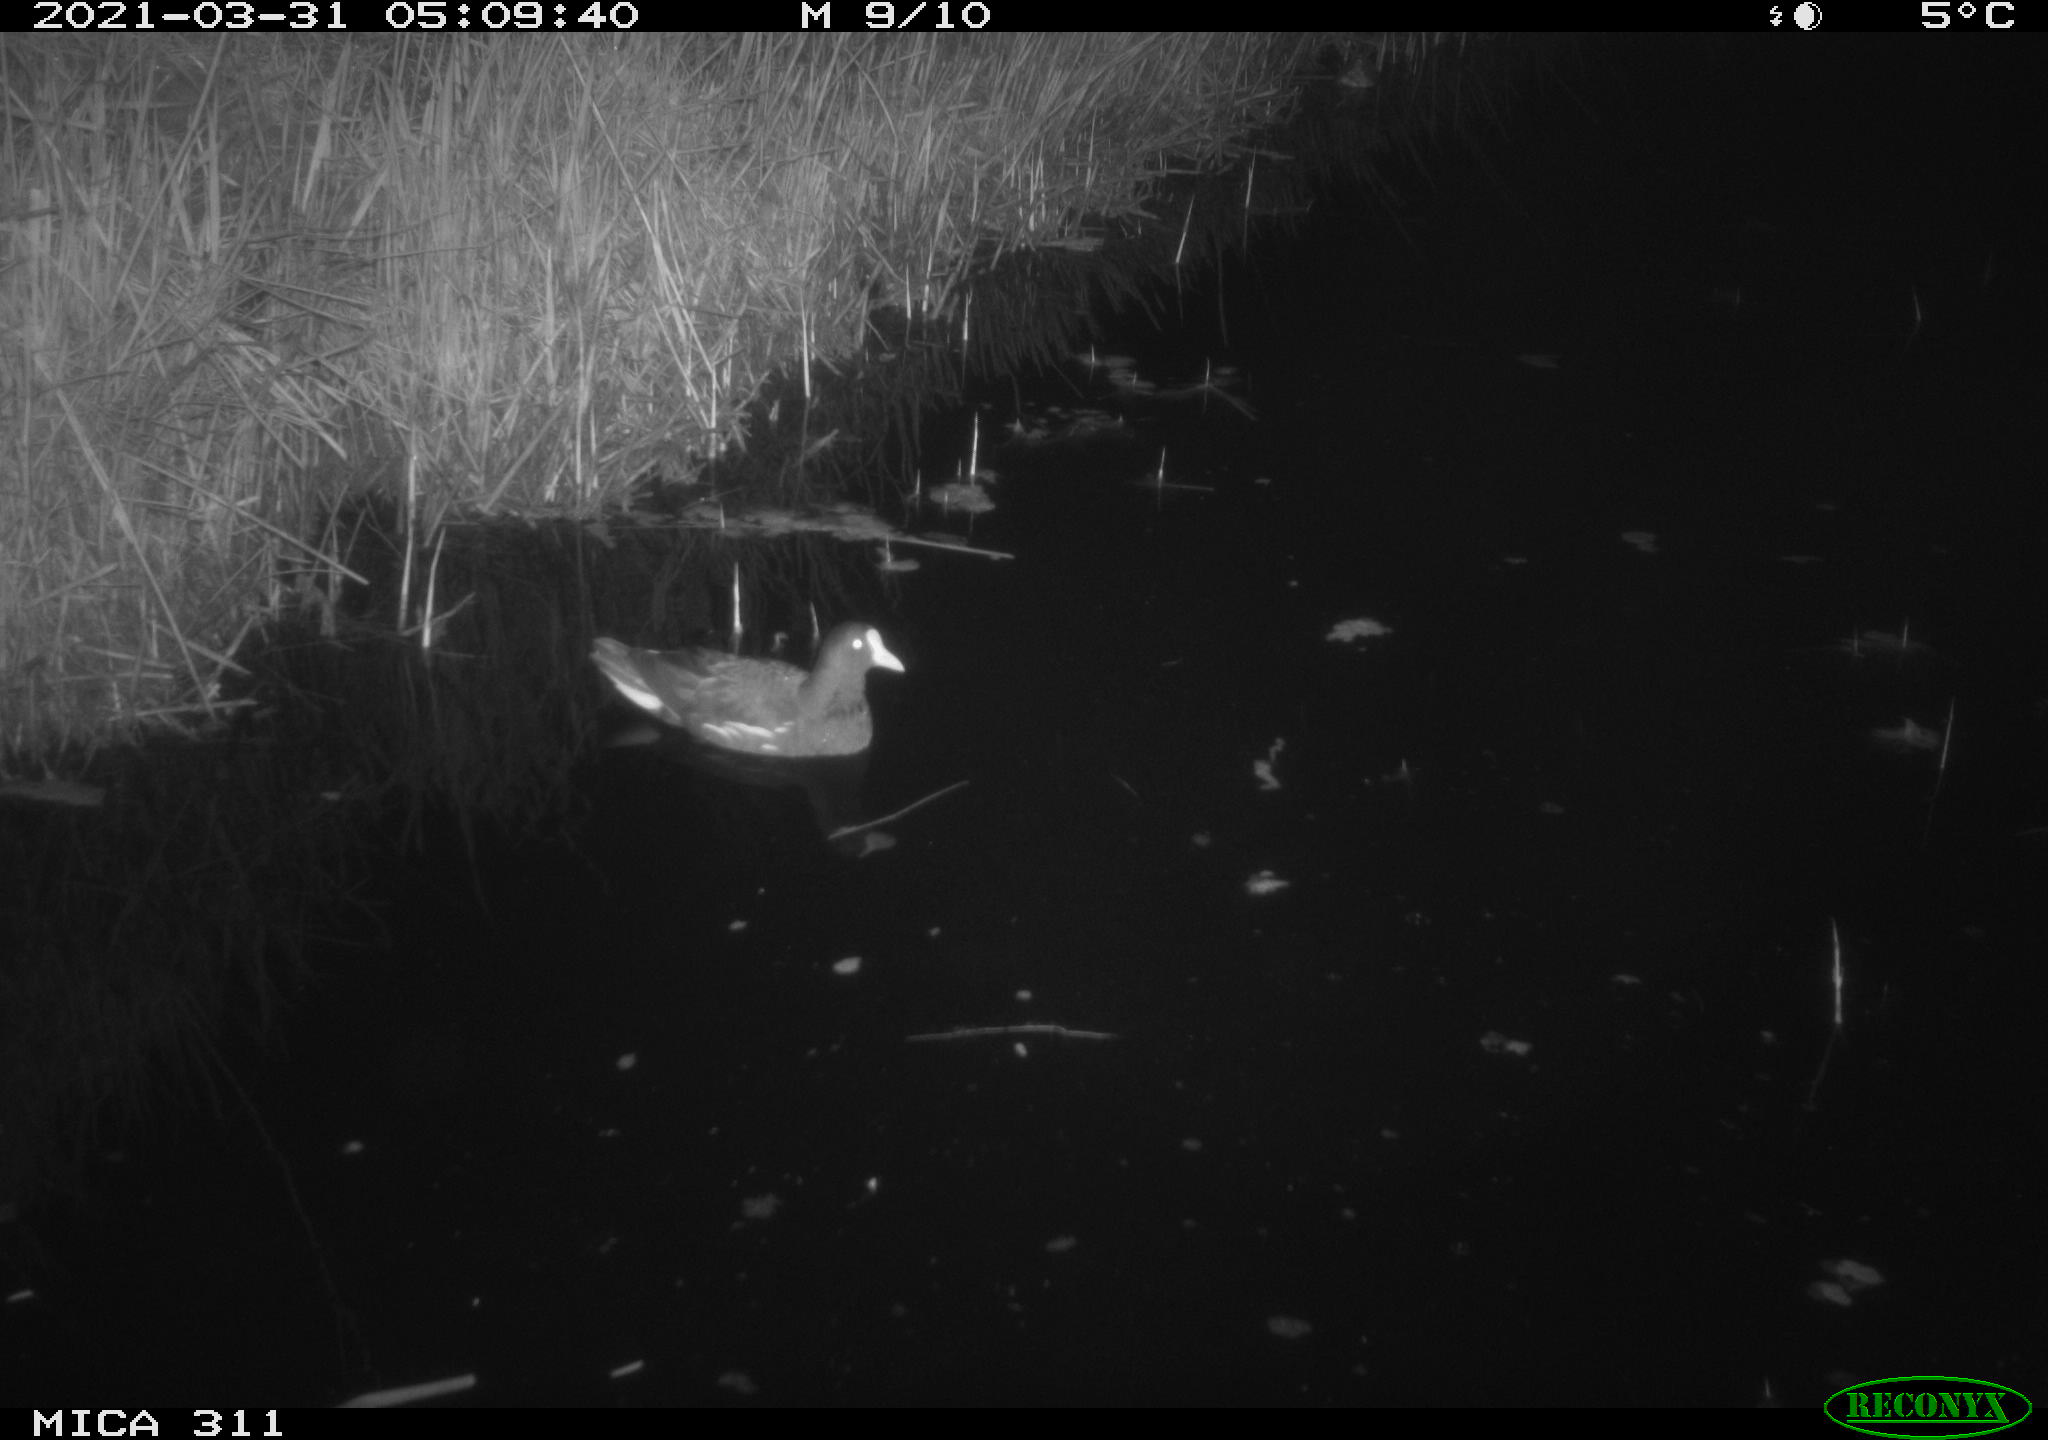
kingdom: Animalia
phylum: Chordata
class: Aves
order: Gruiformes
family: Rallidae
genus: Gallinula
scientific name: Gallinula chloropus
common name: Common moorhen
